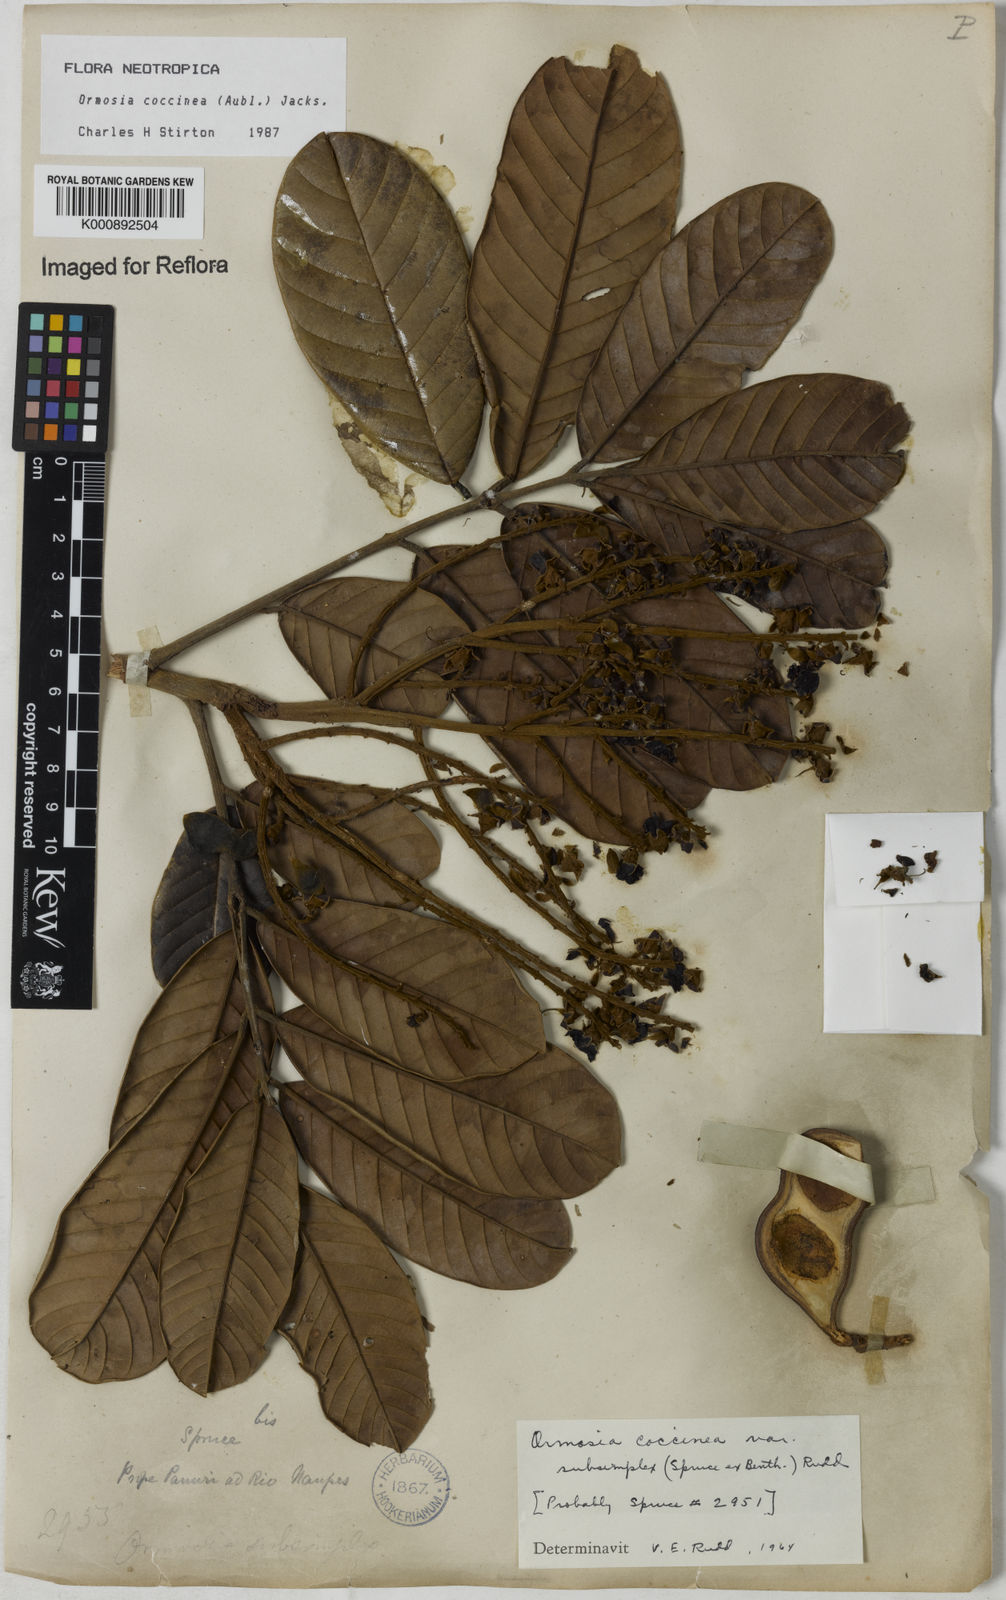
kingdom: Plantae
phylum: Tracheophyta
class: Magnoliopsida
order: Fabales
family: Fabaceae
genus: Ormosia
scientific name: Ormosia coccinea
